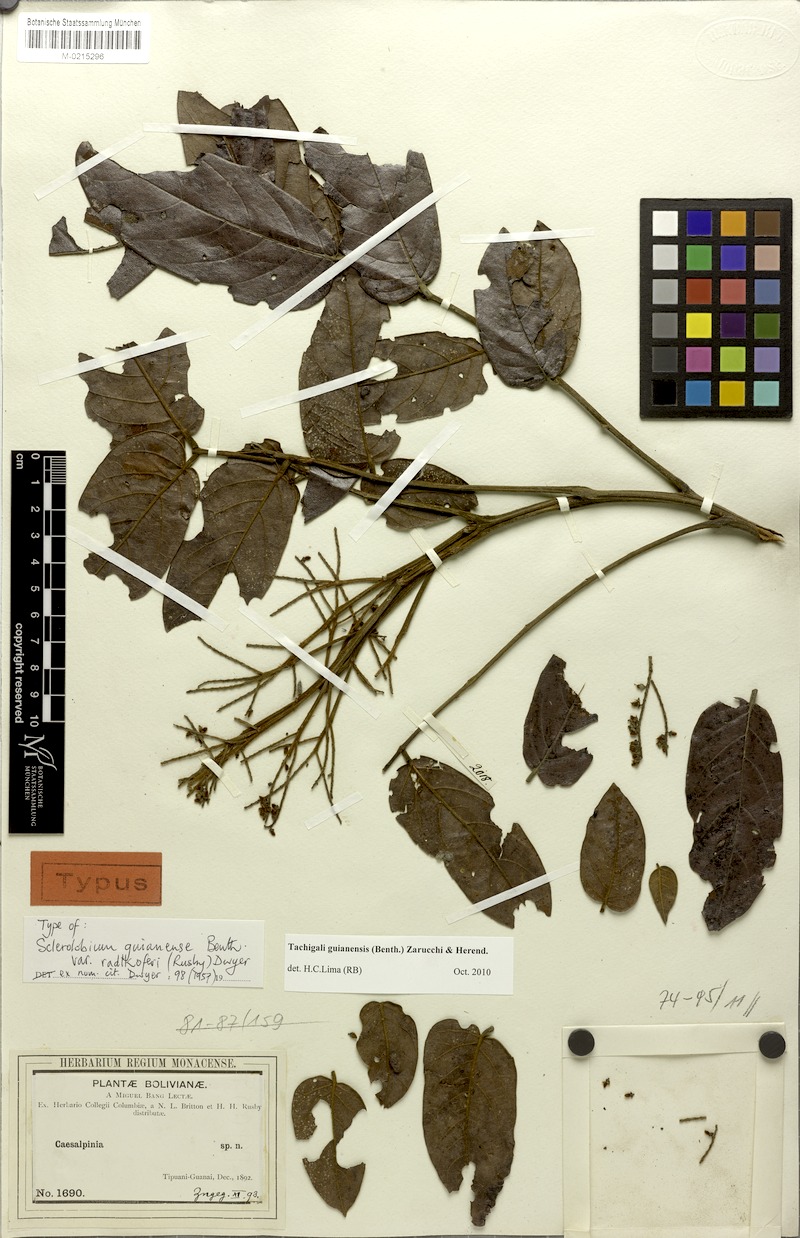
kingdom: Plantae
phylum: Tracheophyta
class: Magnoliopsida
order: Fabales
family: Fabaceae
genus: Tachigali
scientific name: Tachigali guianensis
